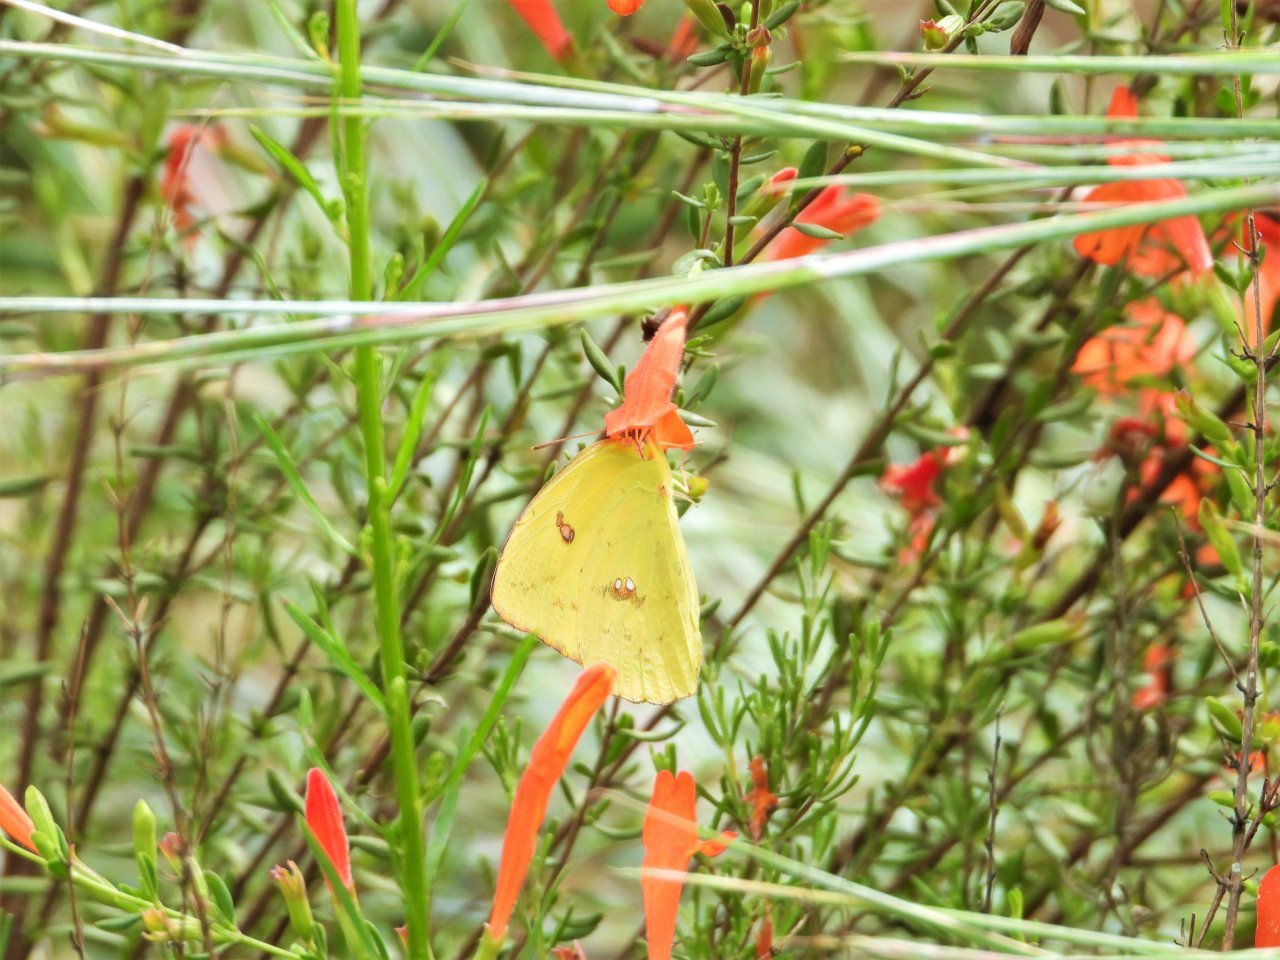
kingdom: Animalia
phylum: Arthropoda
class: Insecta
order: Lepidoptera
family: Pieridae
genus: Phoebis
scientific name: Phoebis sennae
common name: Cloudless Sulphur
